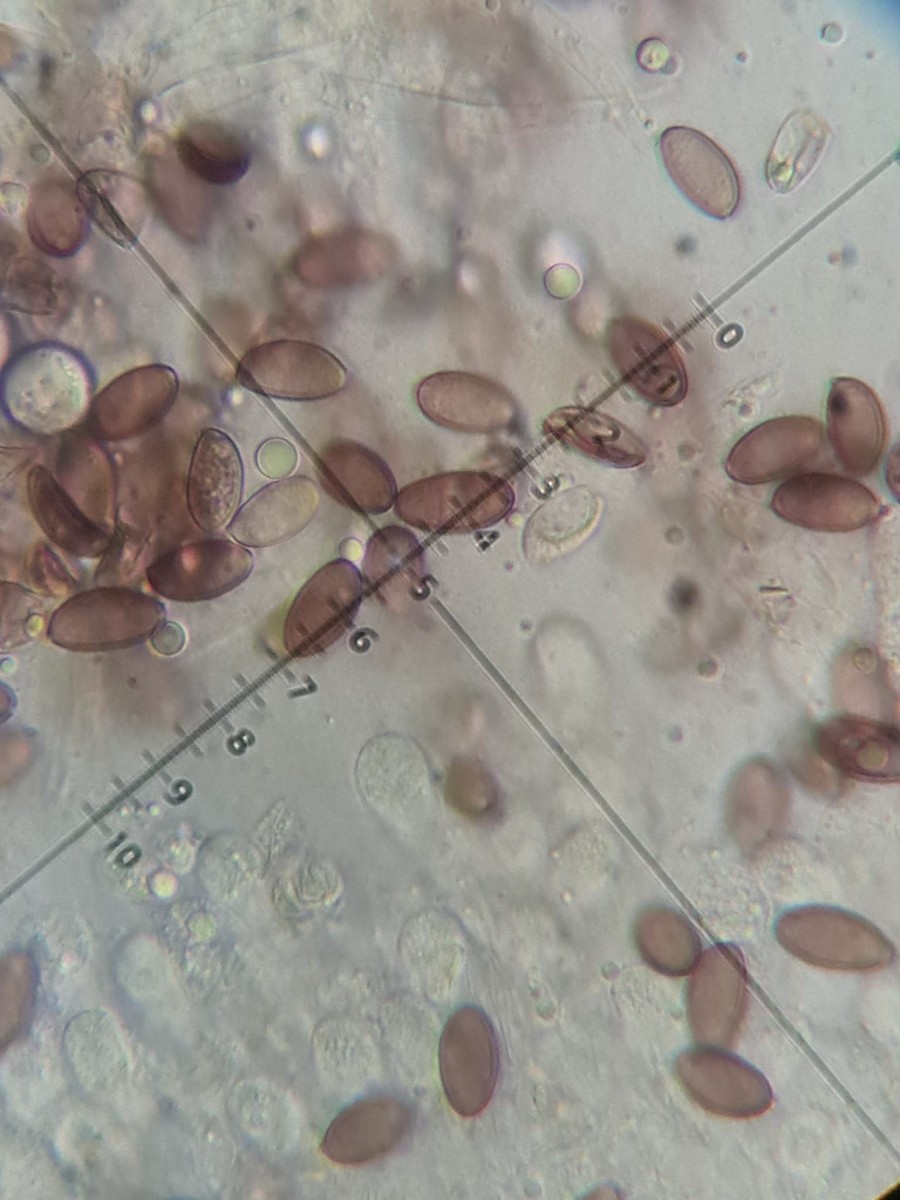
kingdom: Fungi
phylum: Basidiomycota
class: Agaricomycetes
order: Agaricales
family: Hymenogastraceae
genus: Psilocybe
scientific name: Psilocybe semilanceata
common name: spids nøgenhat
